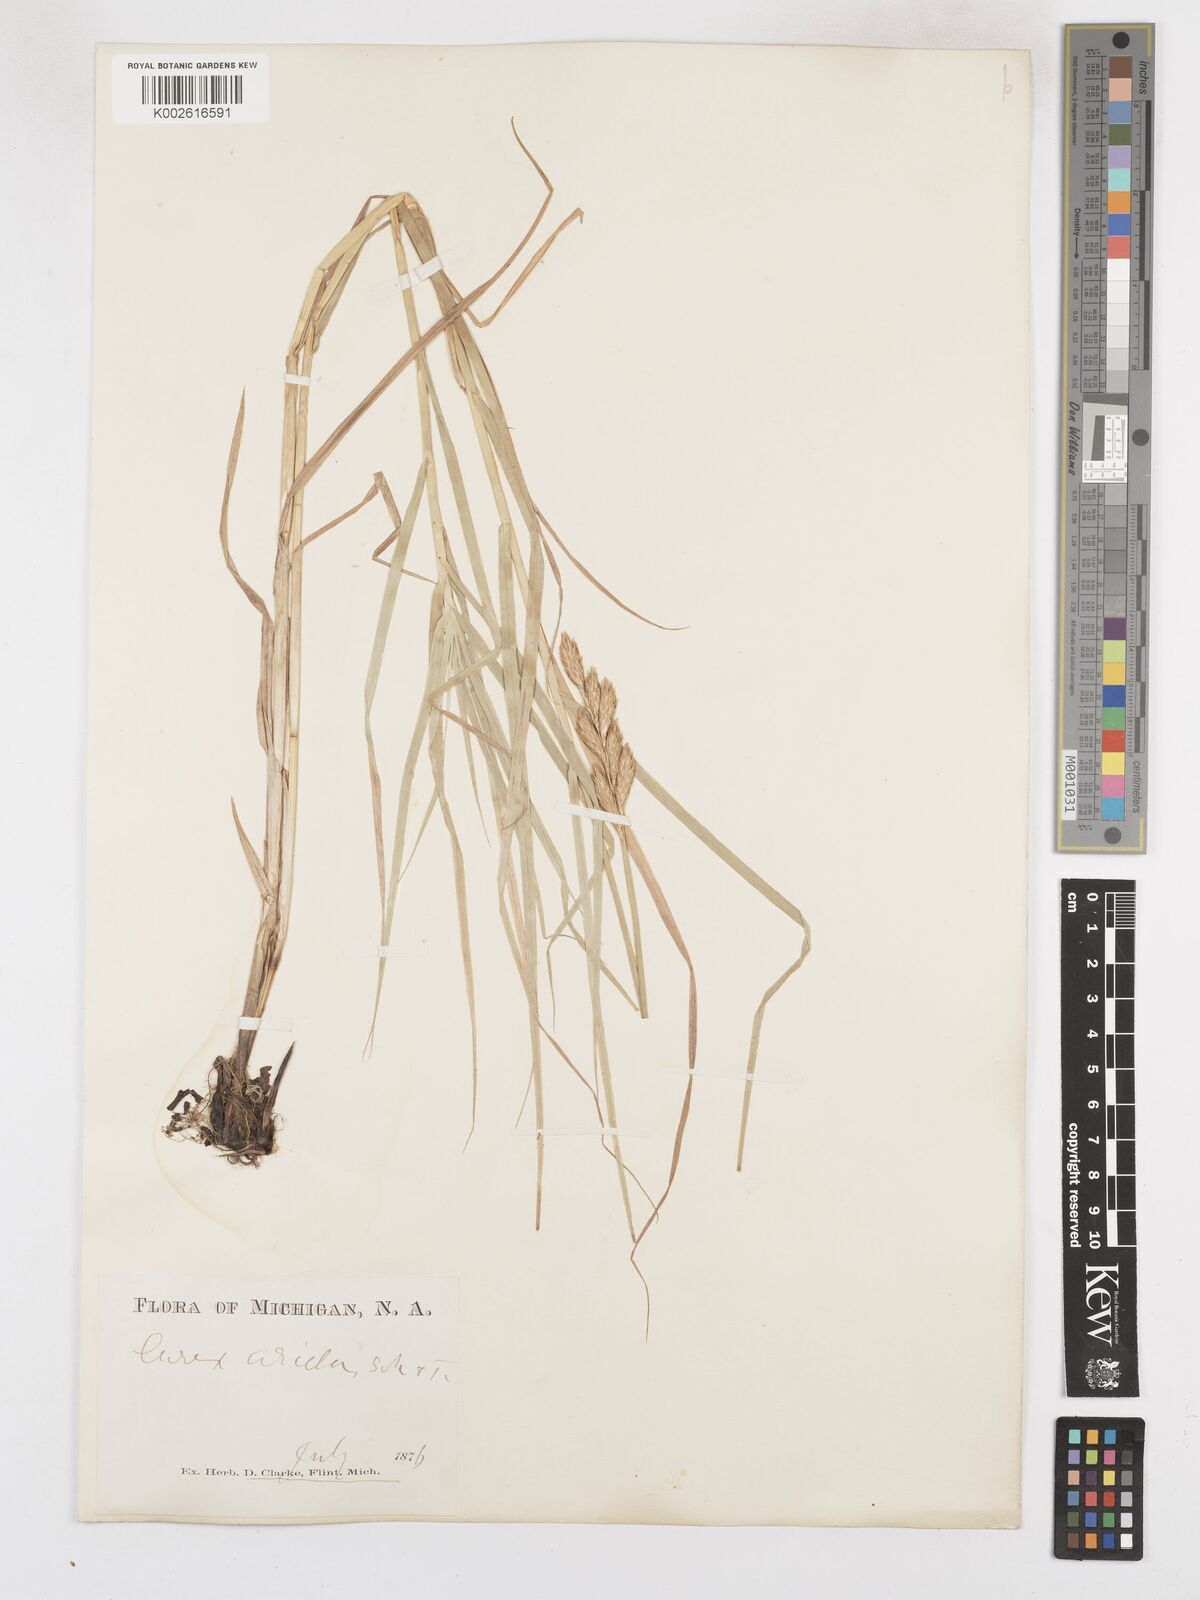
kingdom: Plantae
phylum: Tracheophyta
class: Liliopsida
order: Poales
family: Cyperaceae
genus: Carex
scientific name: Carex muskingumensis
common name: Muskingum sedge
